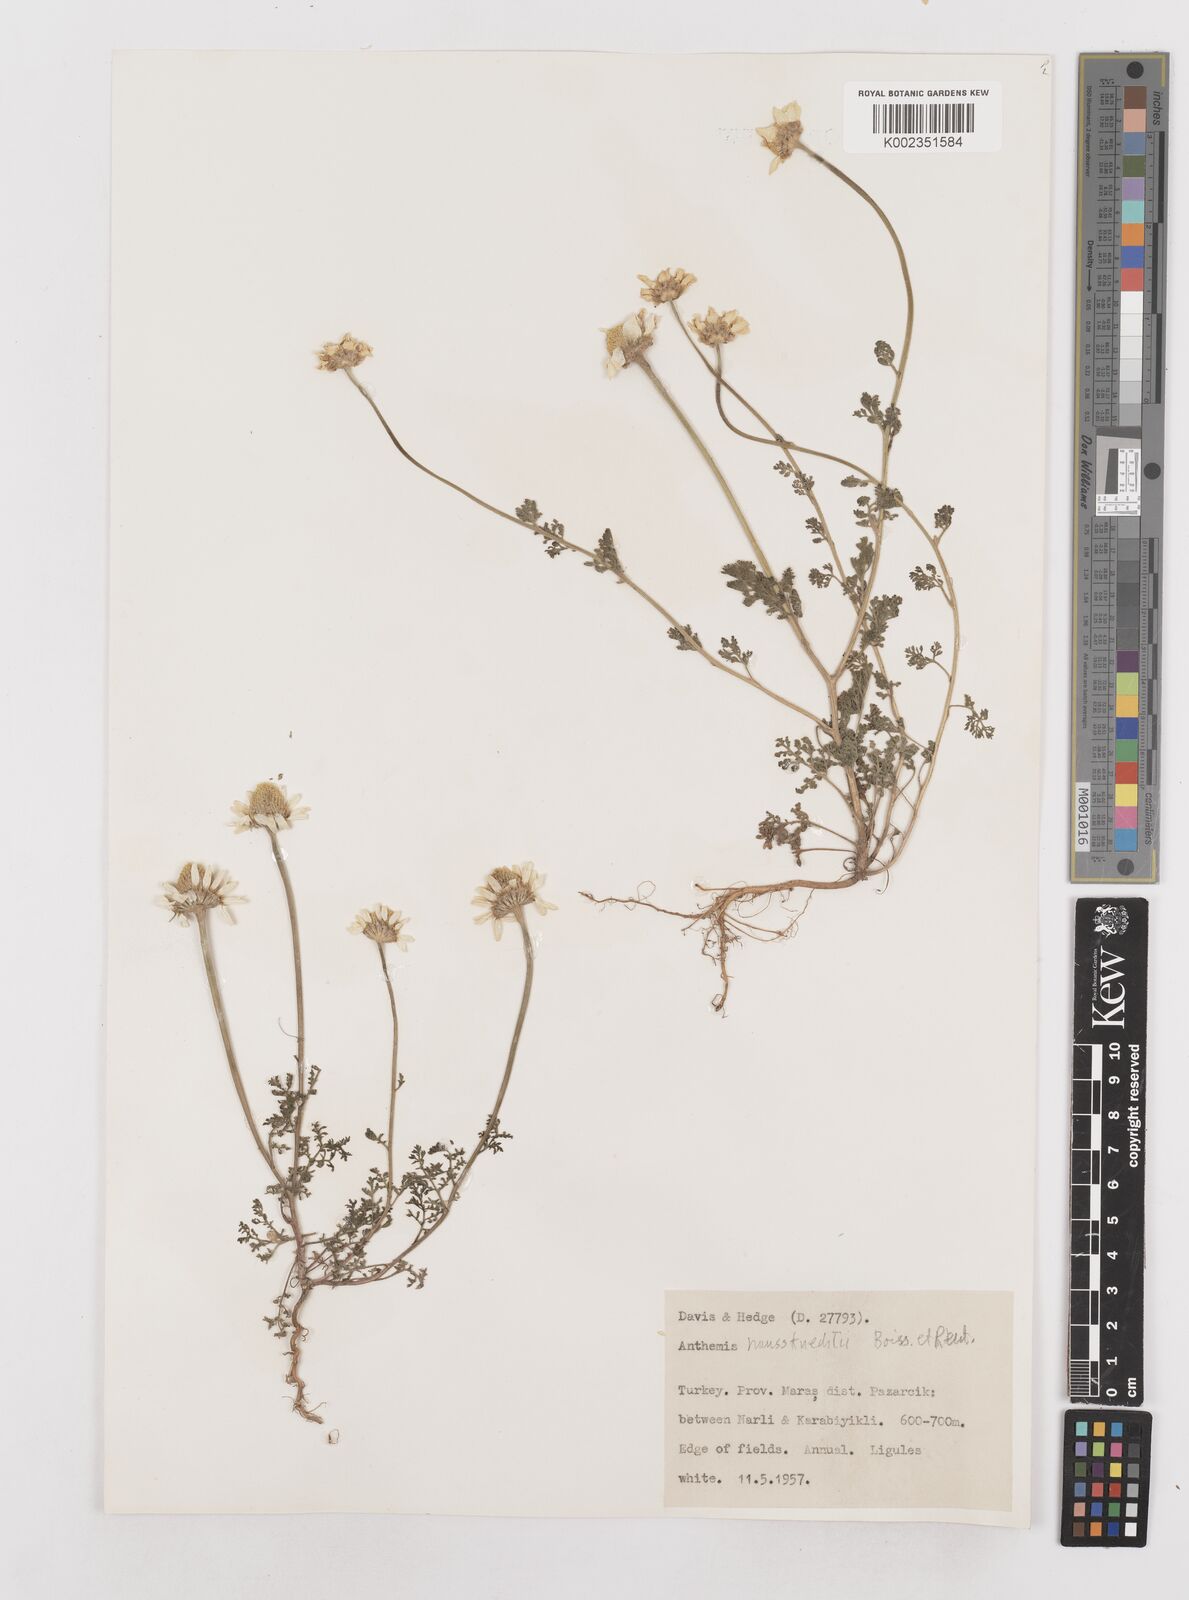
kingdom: Plantae
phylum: Tracheophyta
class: Magnoliopsida
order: Asterales
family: Asteraceae
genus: Anthemis
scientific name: Anthemis haussknechtii
